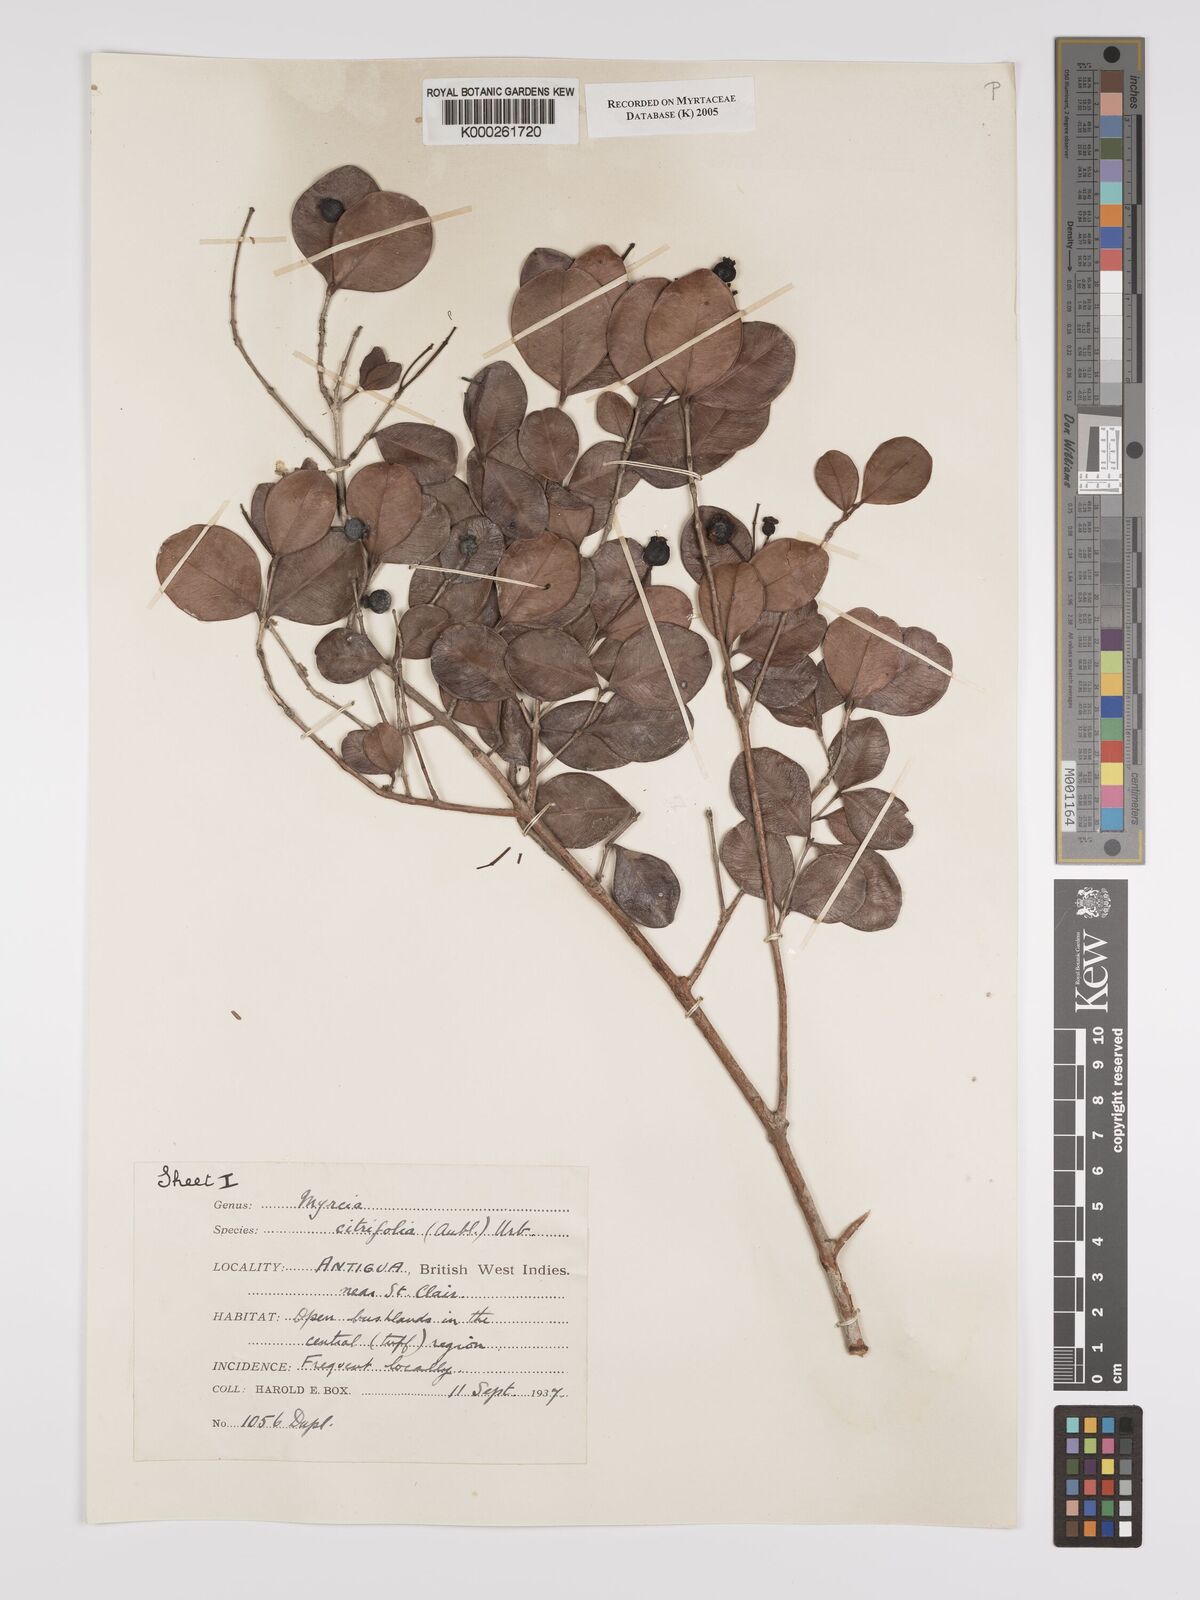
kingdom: Plantae
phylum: Tracheophyta
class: Magnoliopsida
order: Myrtales
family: Myrtaceae
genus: Myrcia
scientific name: Myrcia guianensis
